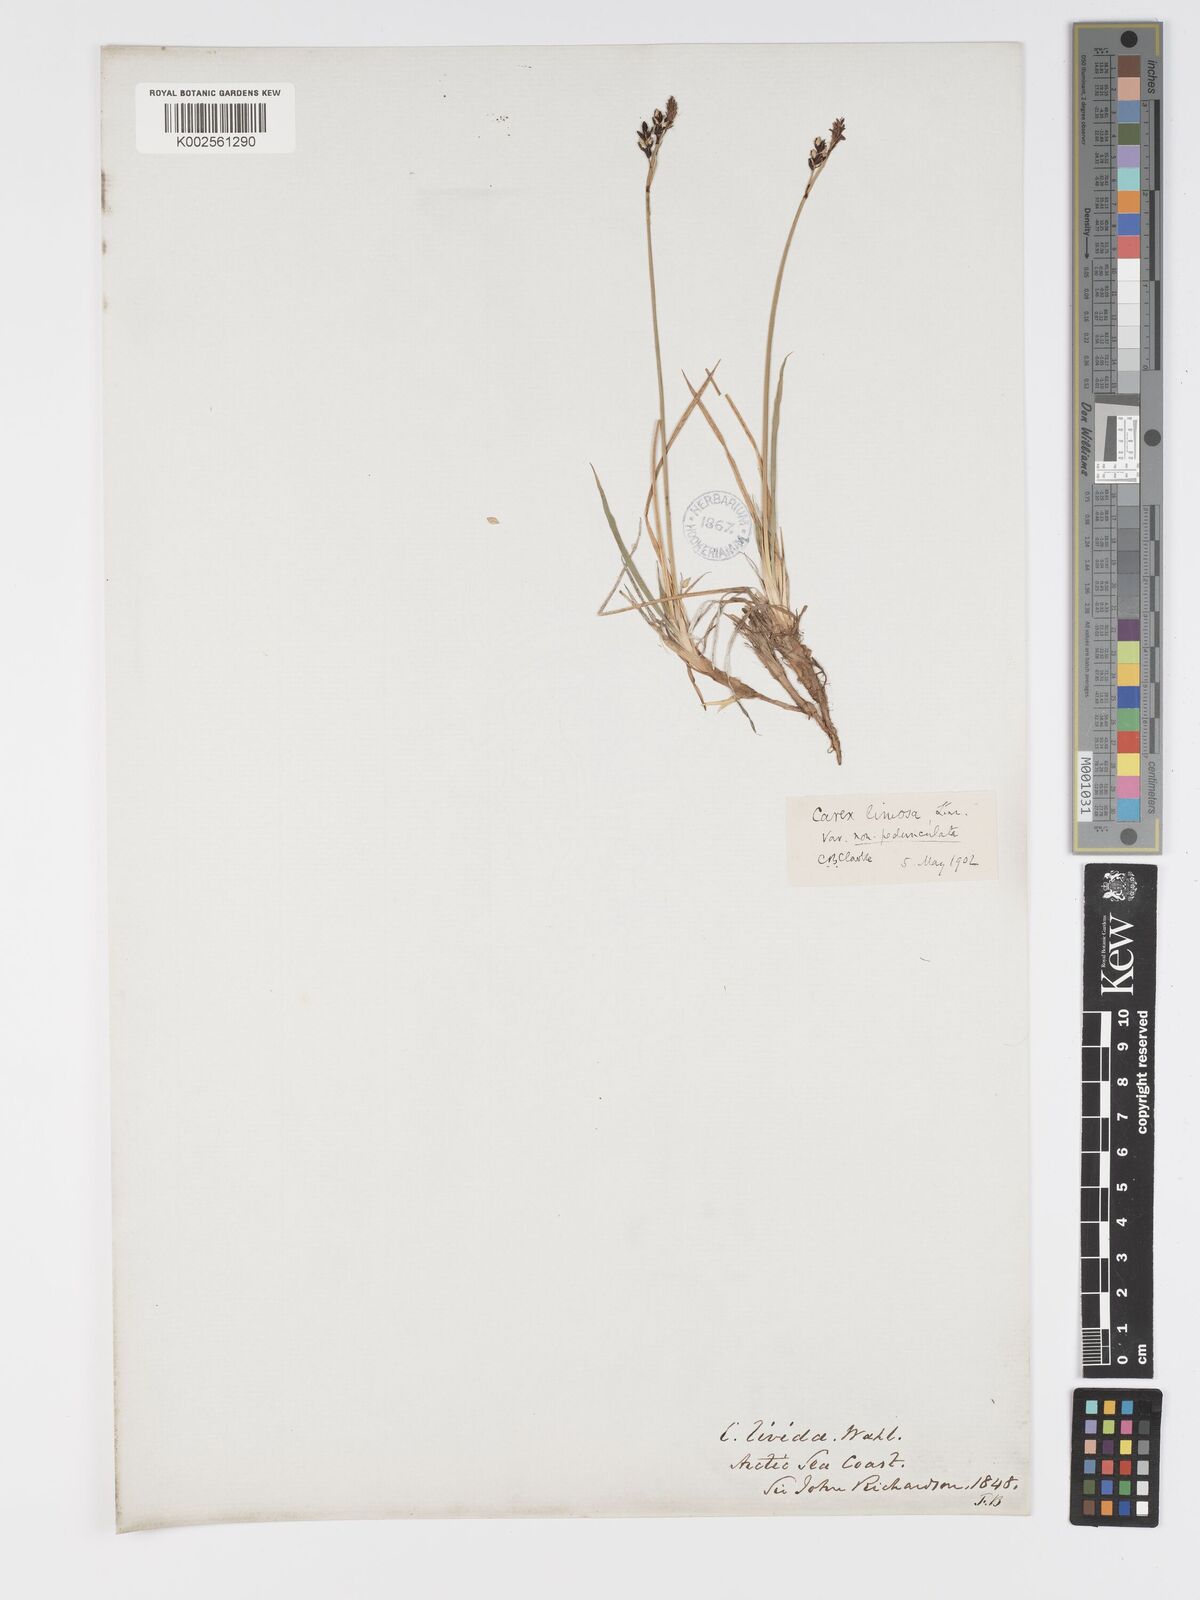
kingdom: Plantae
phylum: Tracheophyta
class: Liliopsida
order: Poales
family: Cyperaceae
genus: Carex
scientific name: Carex limosa
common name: Bog sedge
